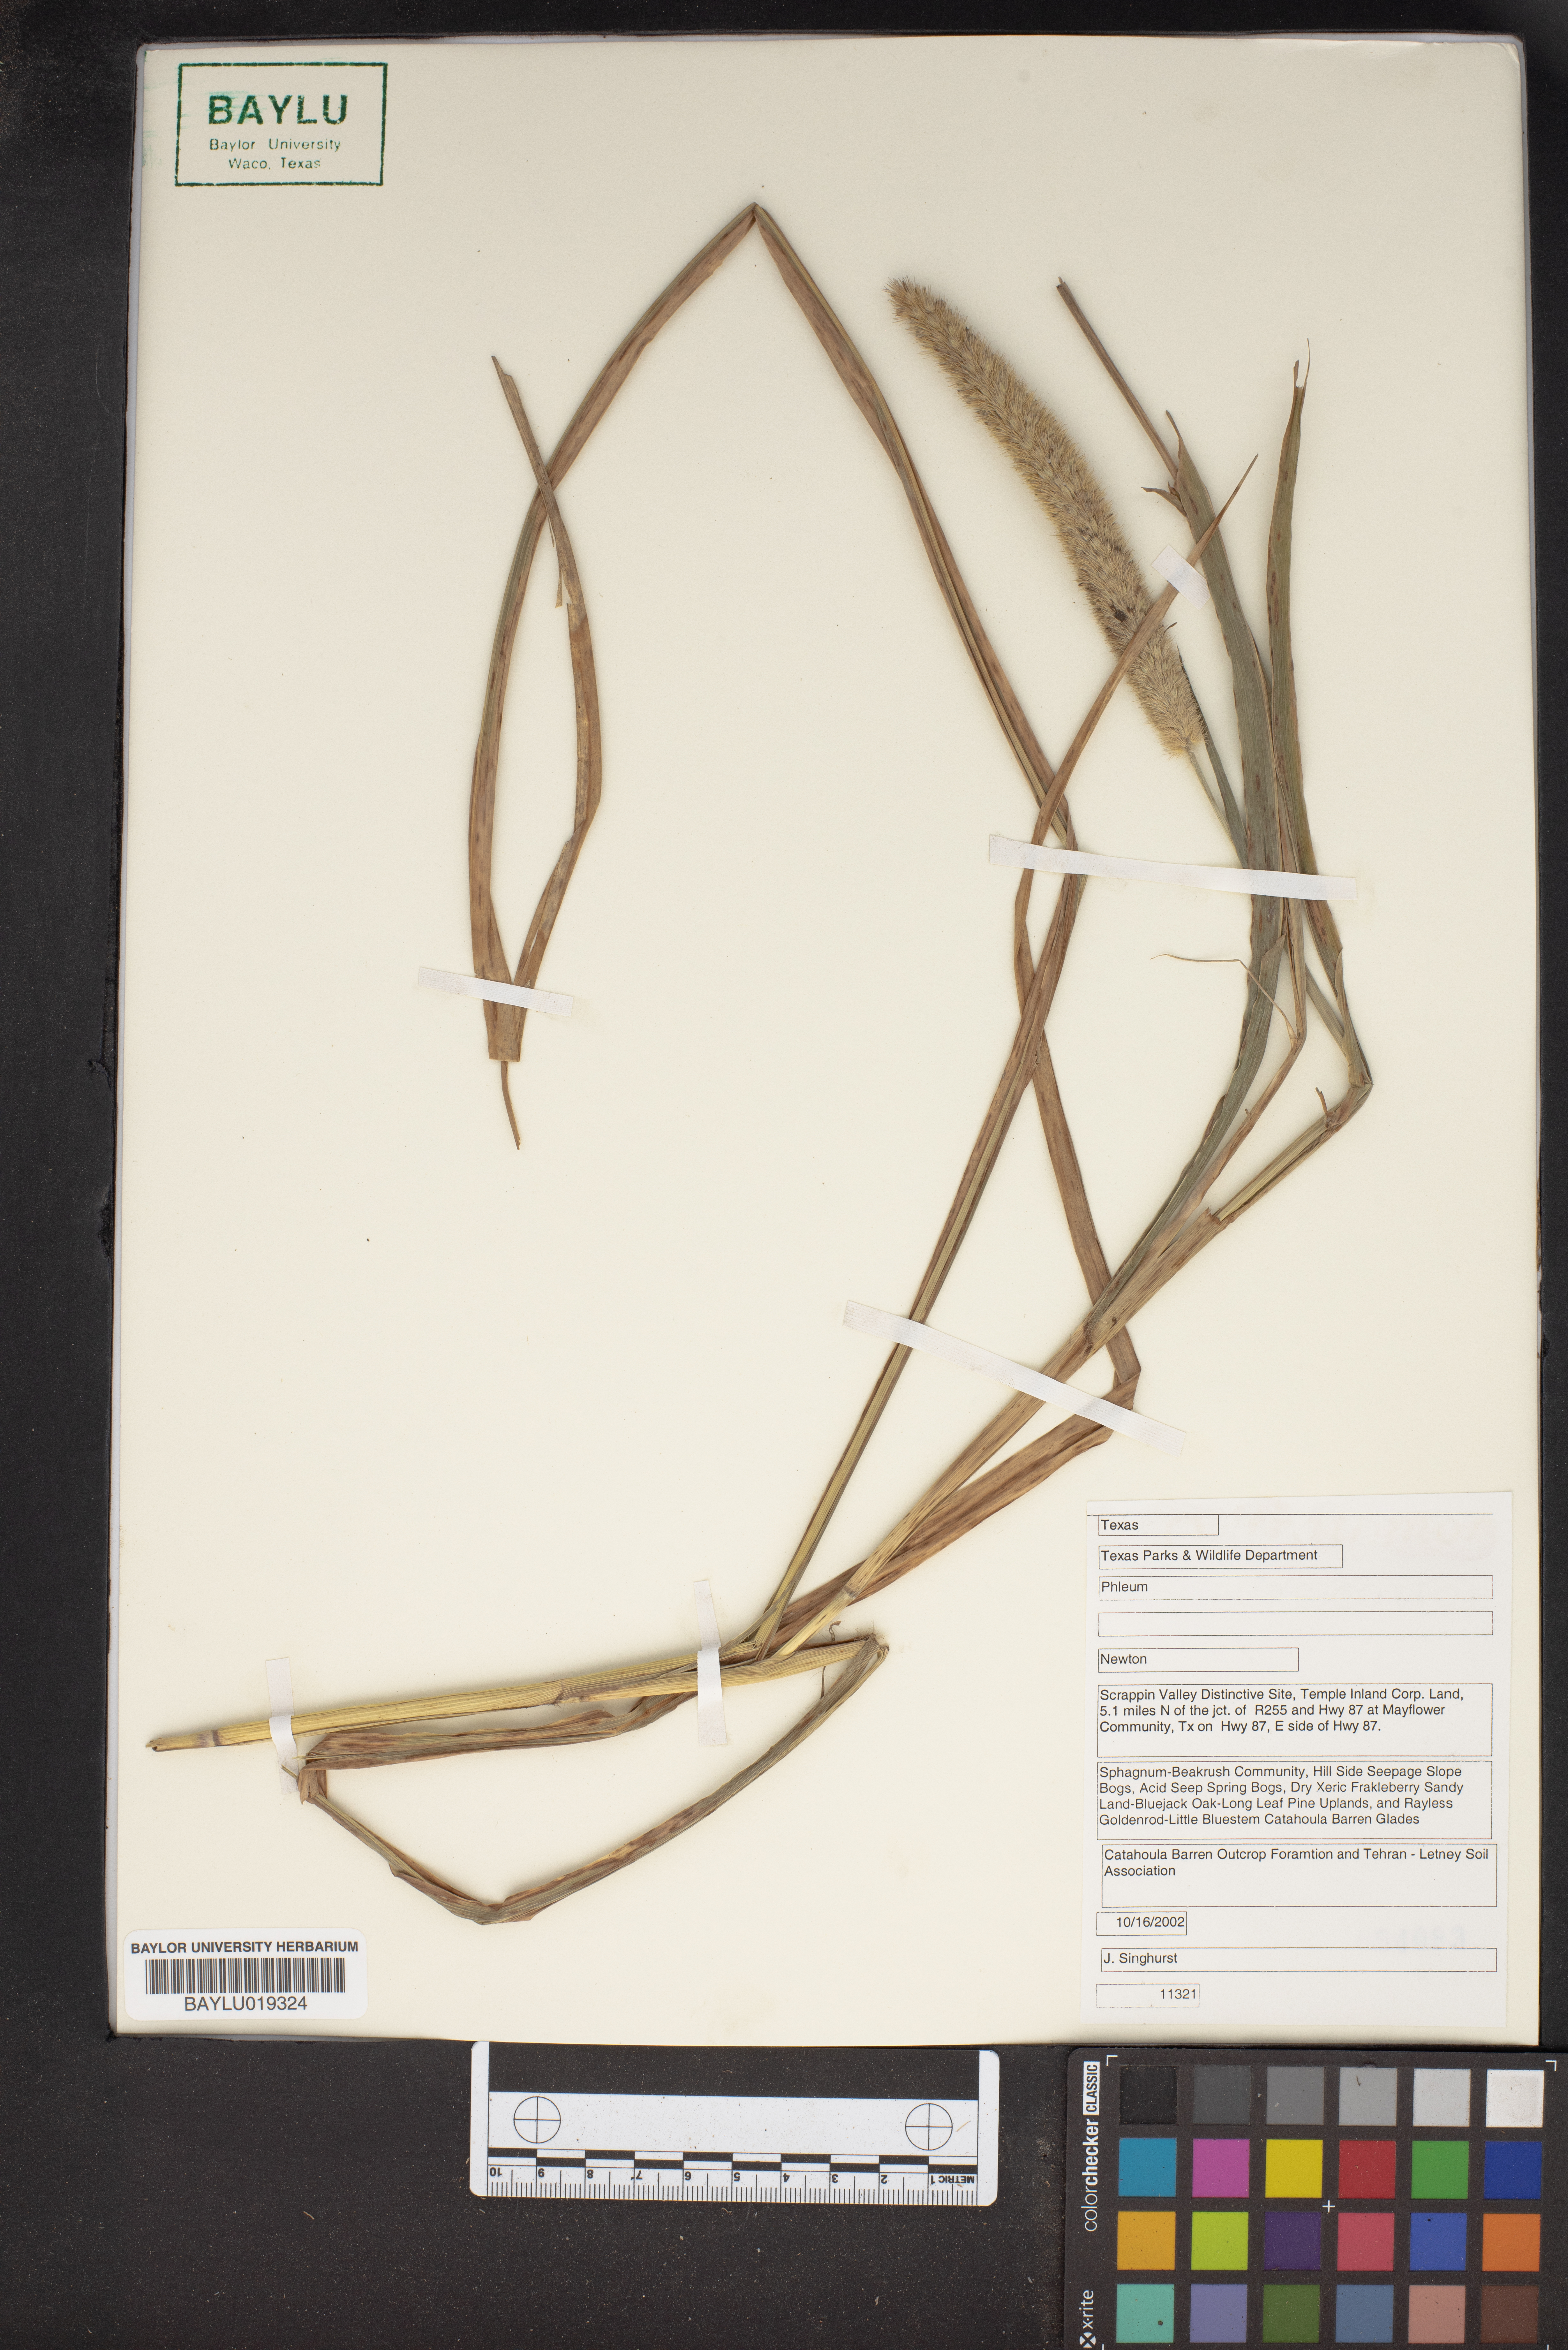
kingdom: Plantae
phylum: Tracheophyta
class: Liliopsida
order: Poales
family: Poaceae
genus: Phleum
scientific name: Phleum
